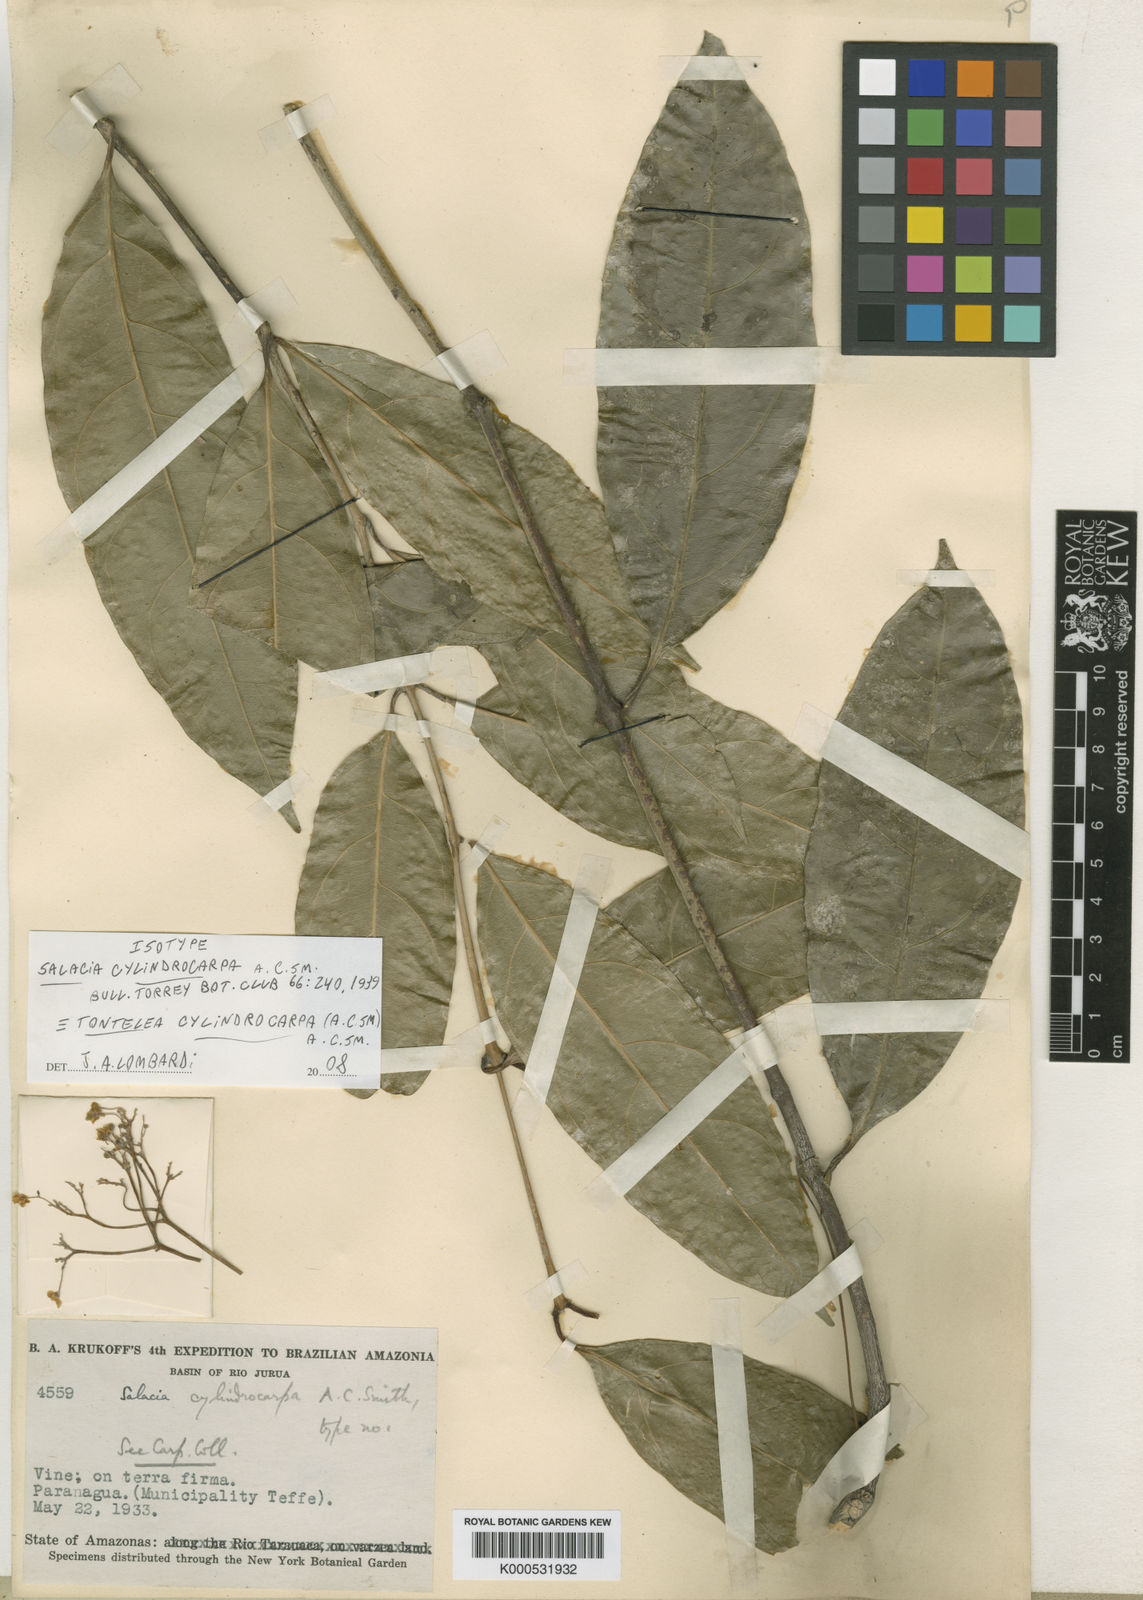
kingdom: Plantae
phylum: Tracheophyta
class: Magnoliopsida
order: Celastrales
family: Celastraceae
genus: Tontelea
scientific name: Tontelea cylindrocarpa
